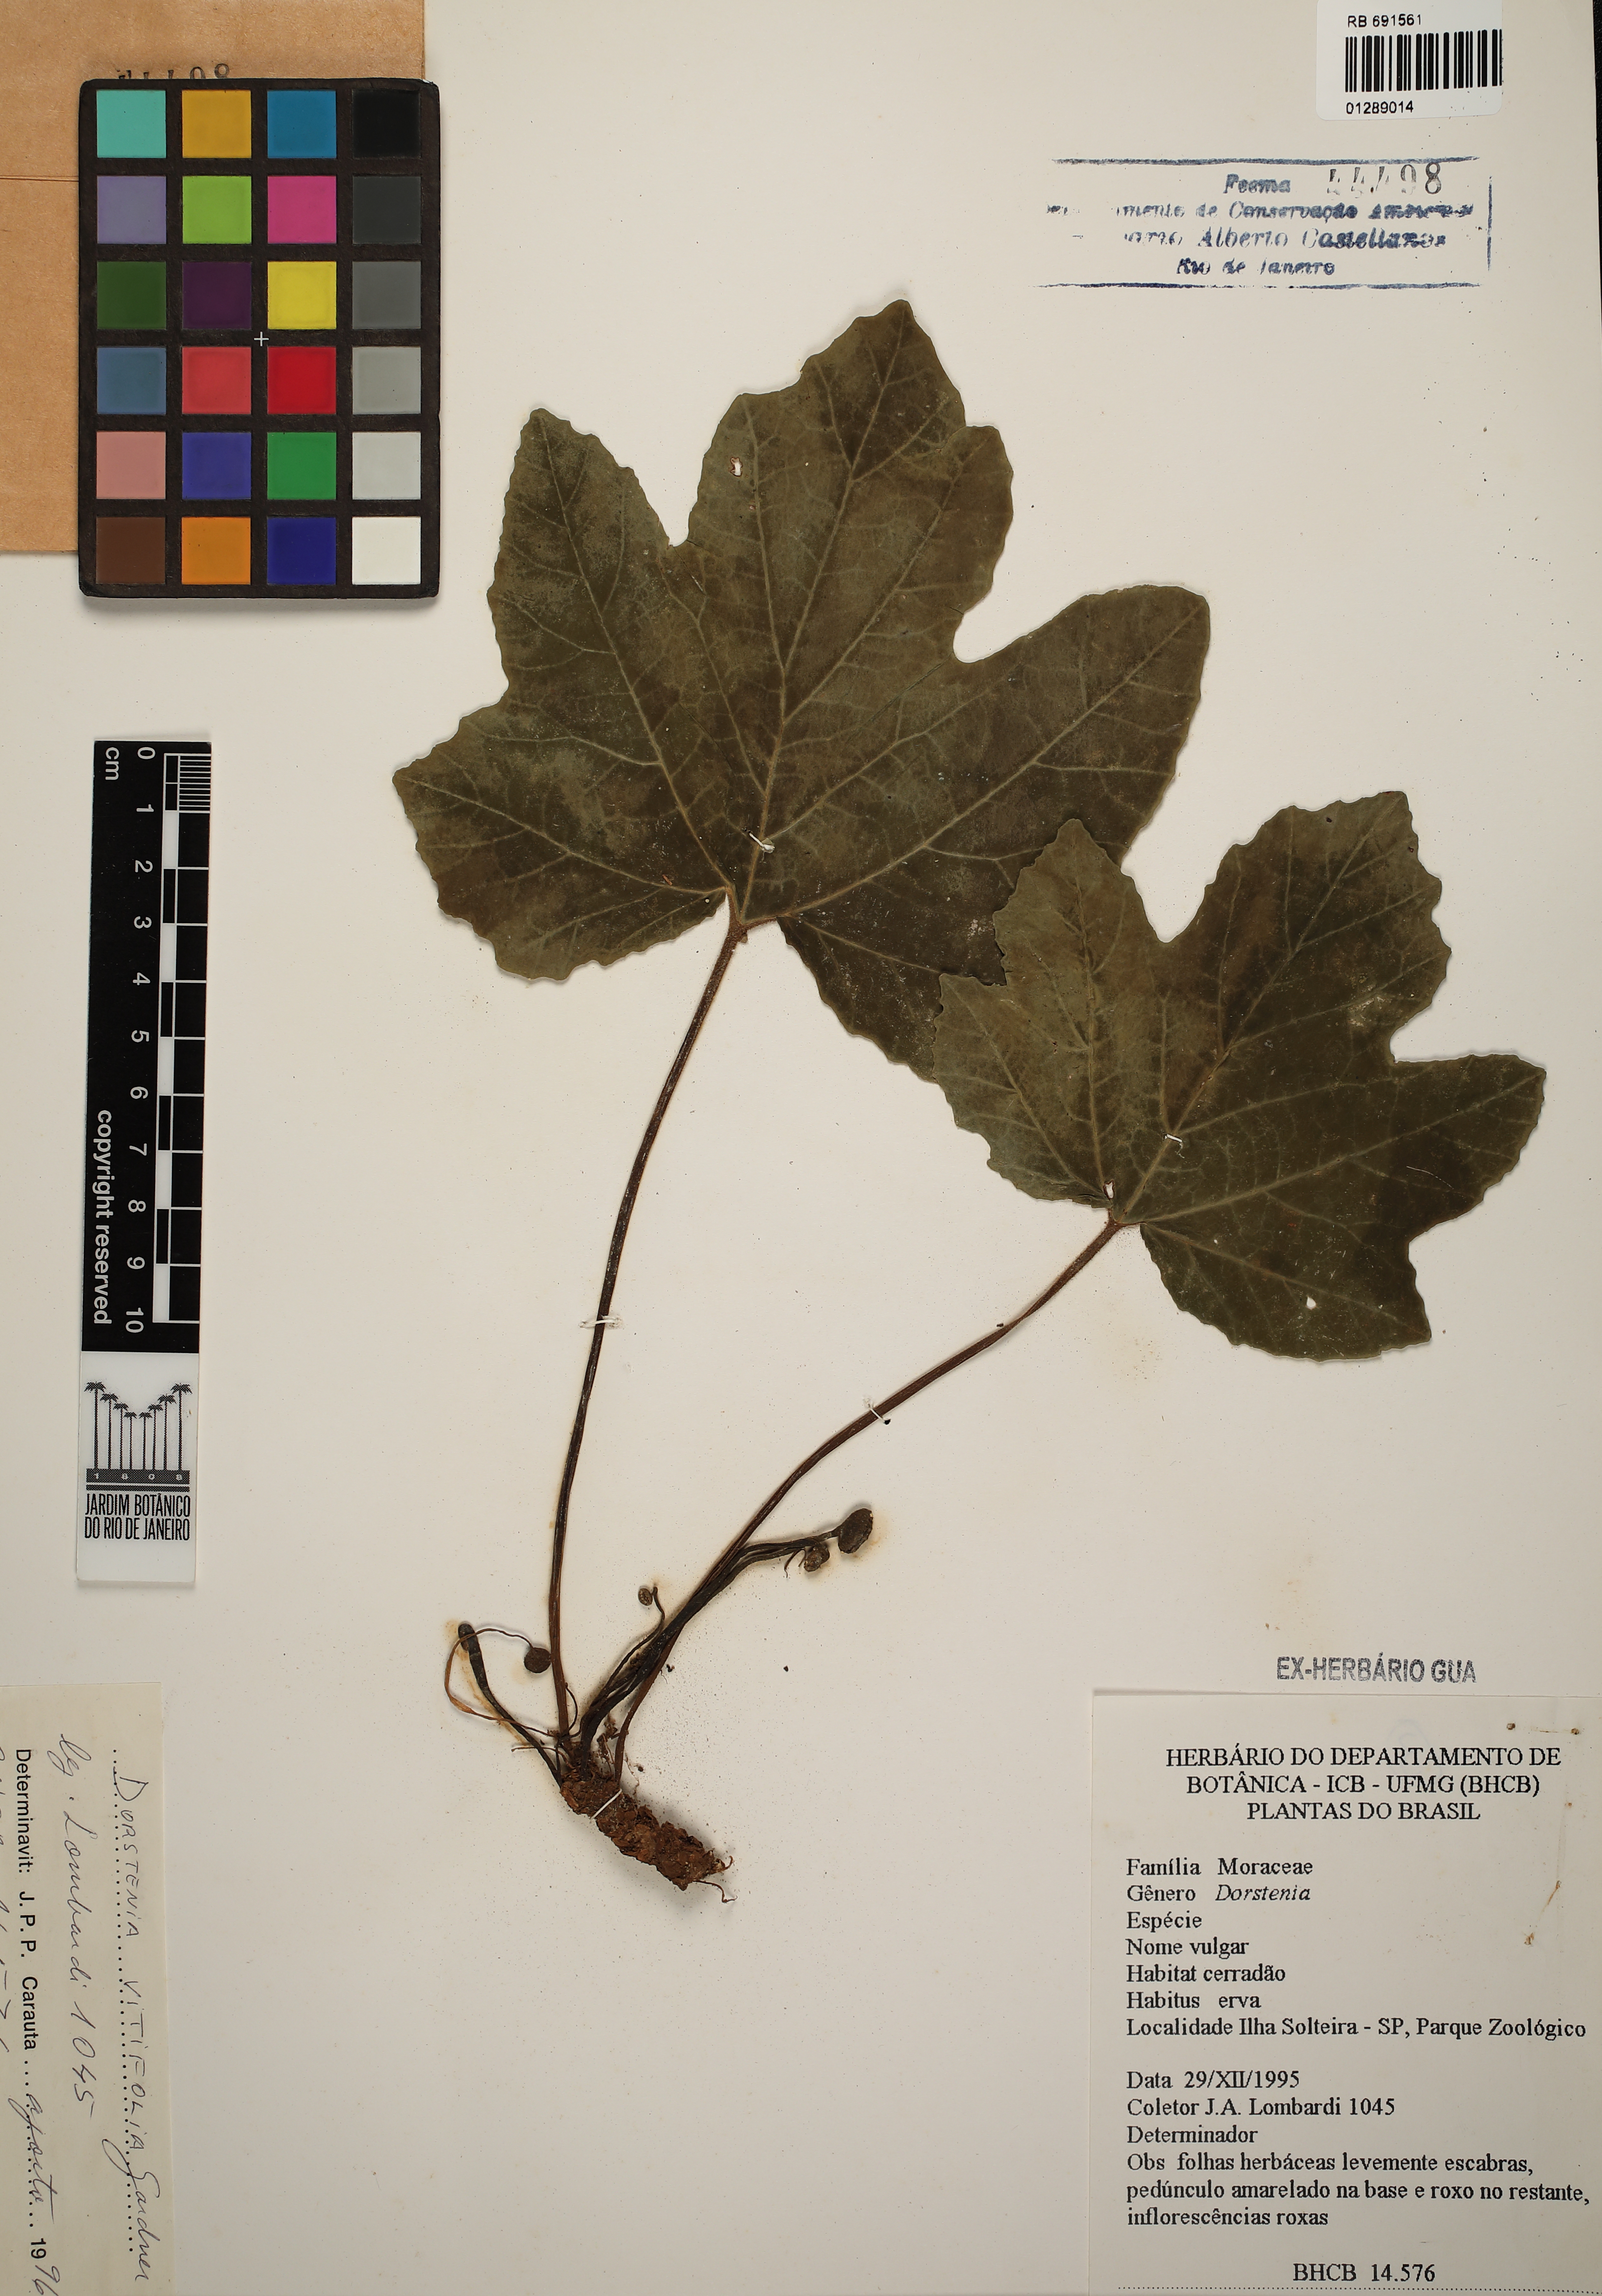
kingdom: Plantae
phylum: Tracheophyta
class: Magnoliopsida
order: Rosales
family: Moraceae
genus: Dorstenia
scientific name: Dorstenia cayapia
